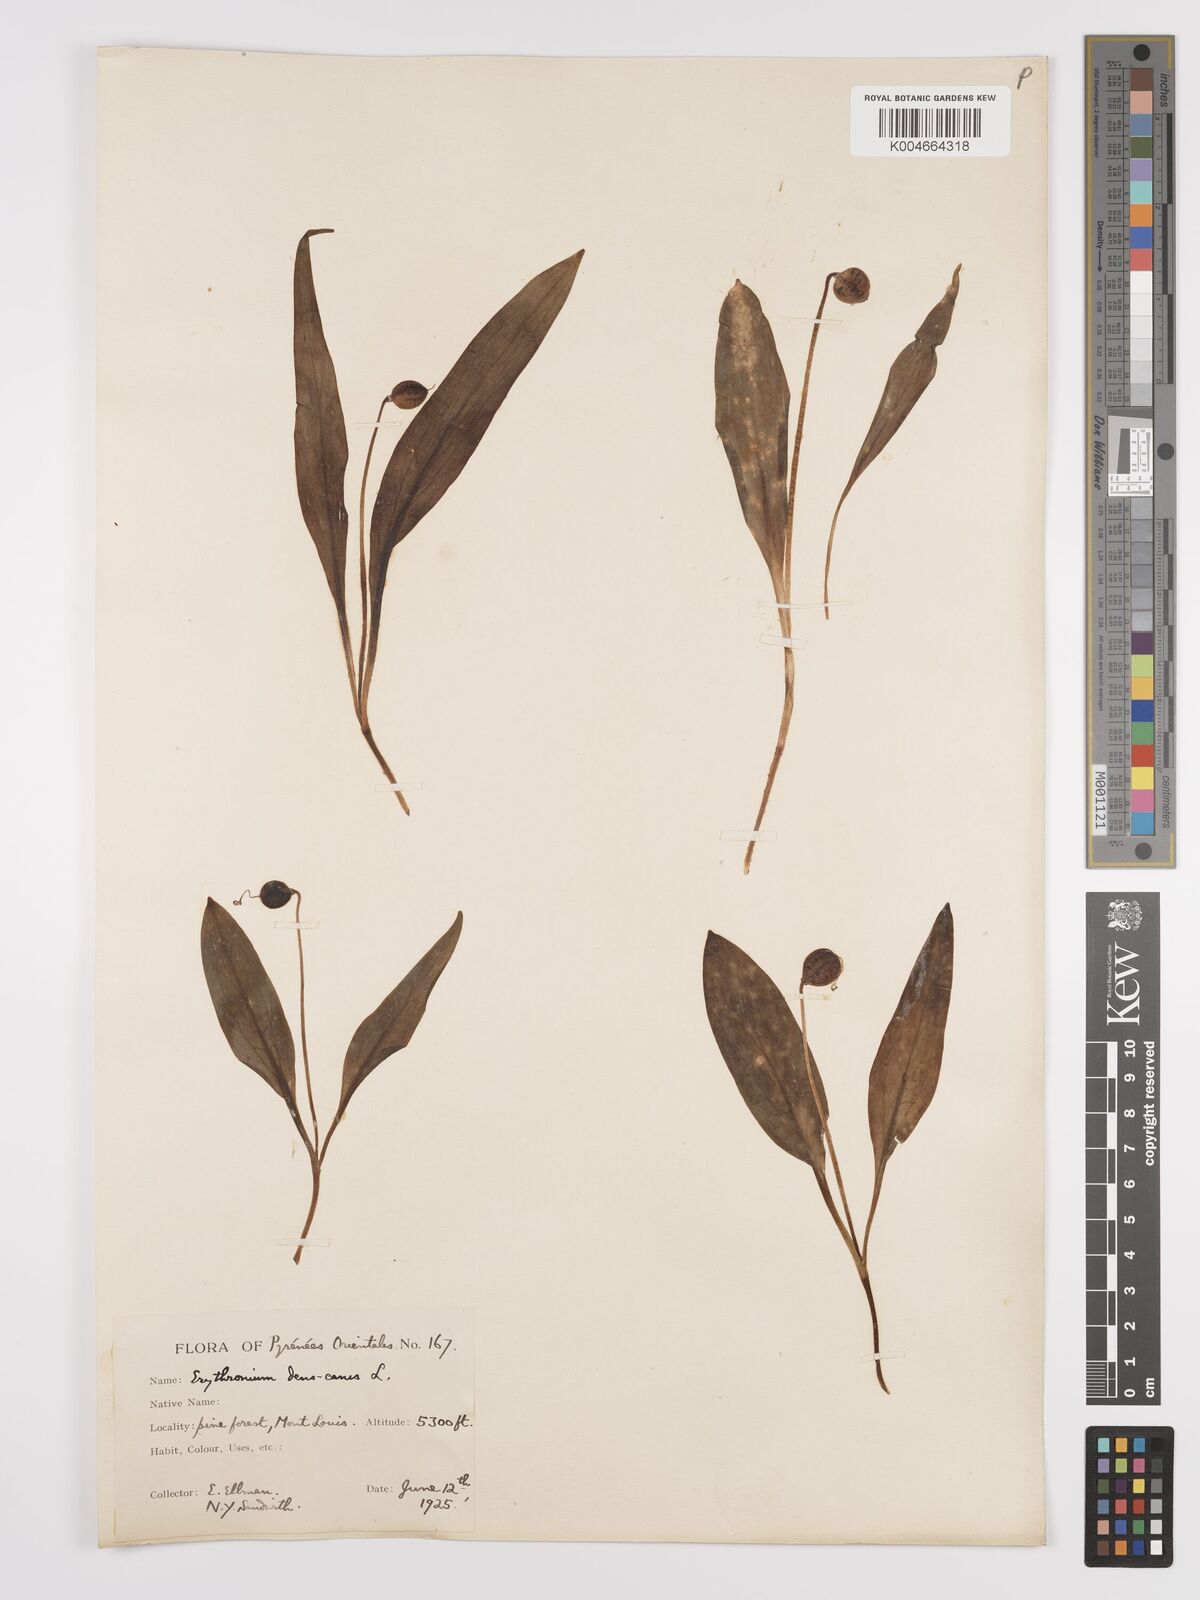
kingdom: Plantae
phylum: Tracheophyta
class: Liliopsida
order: Liliales
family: Liliaceae
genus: Erythronium
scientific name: Erythronium dens-canis
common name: Dog's-tooth-violet
